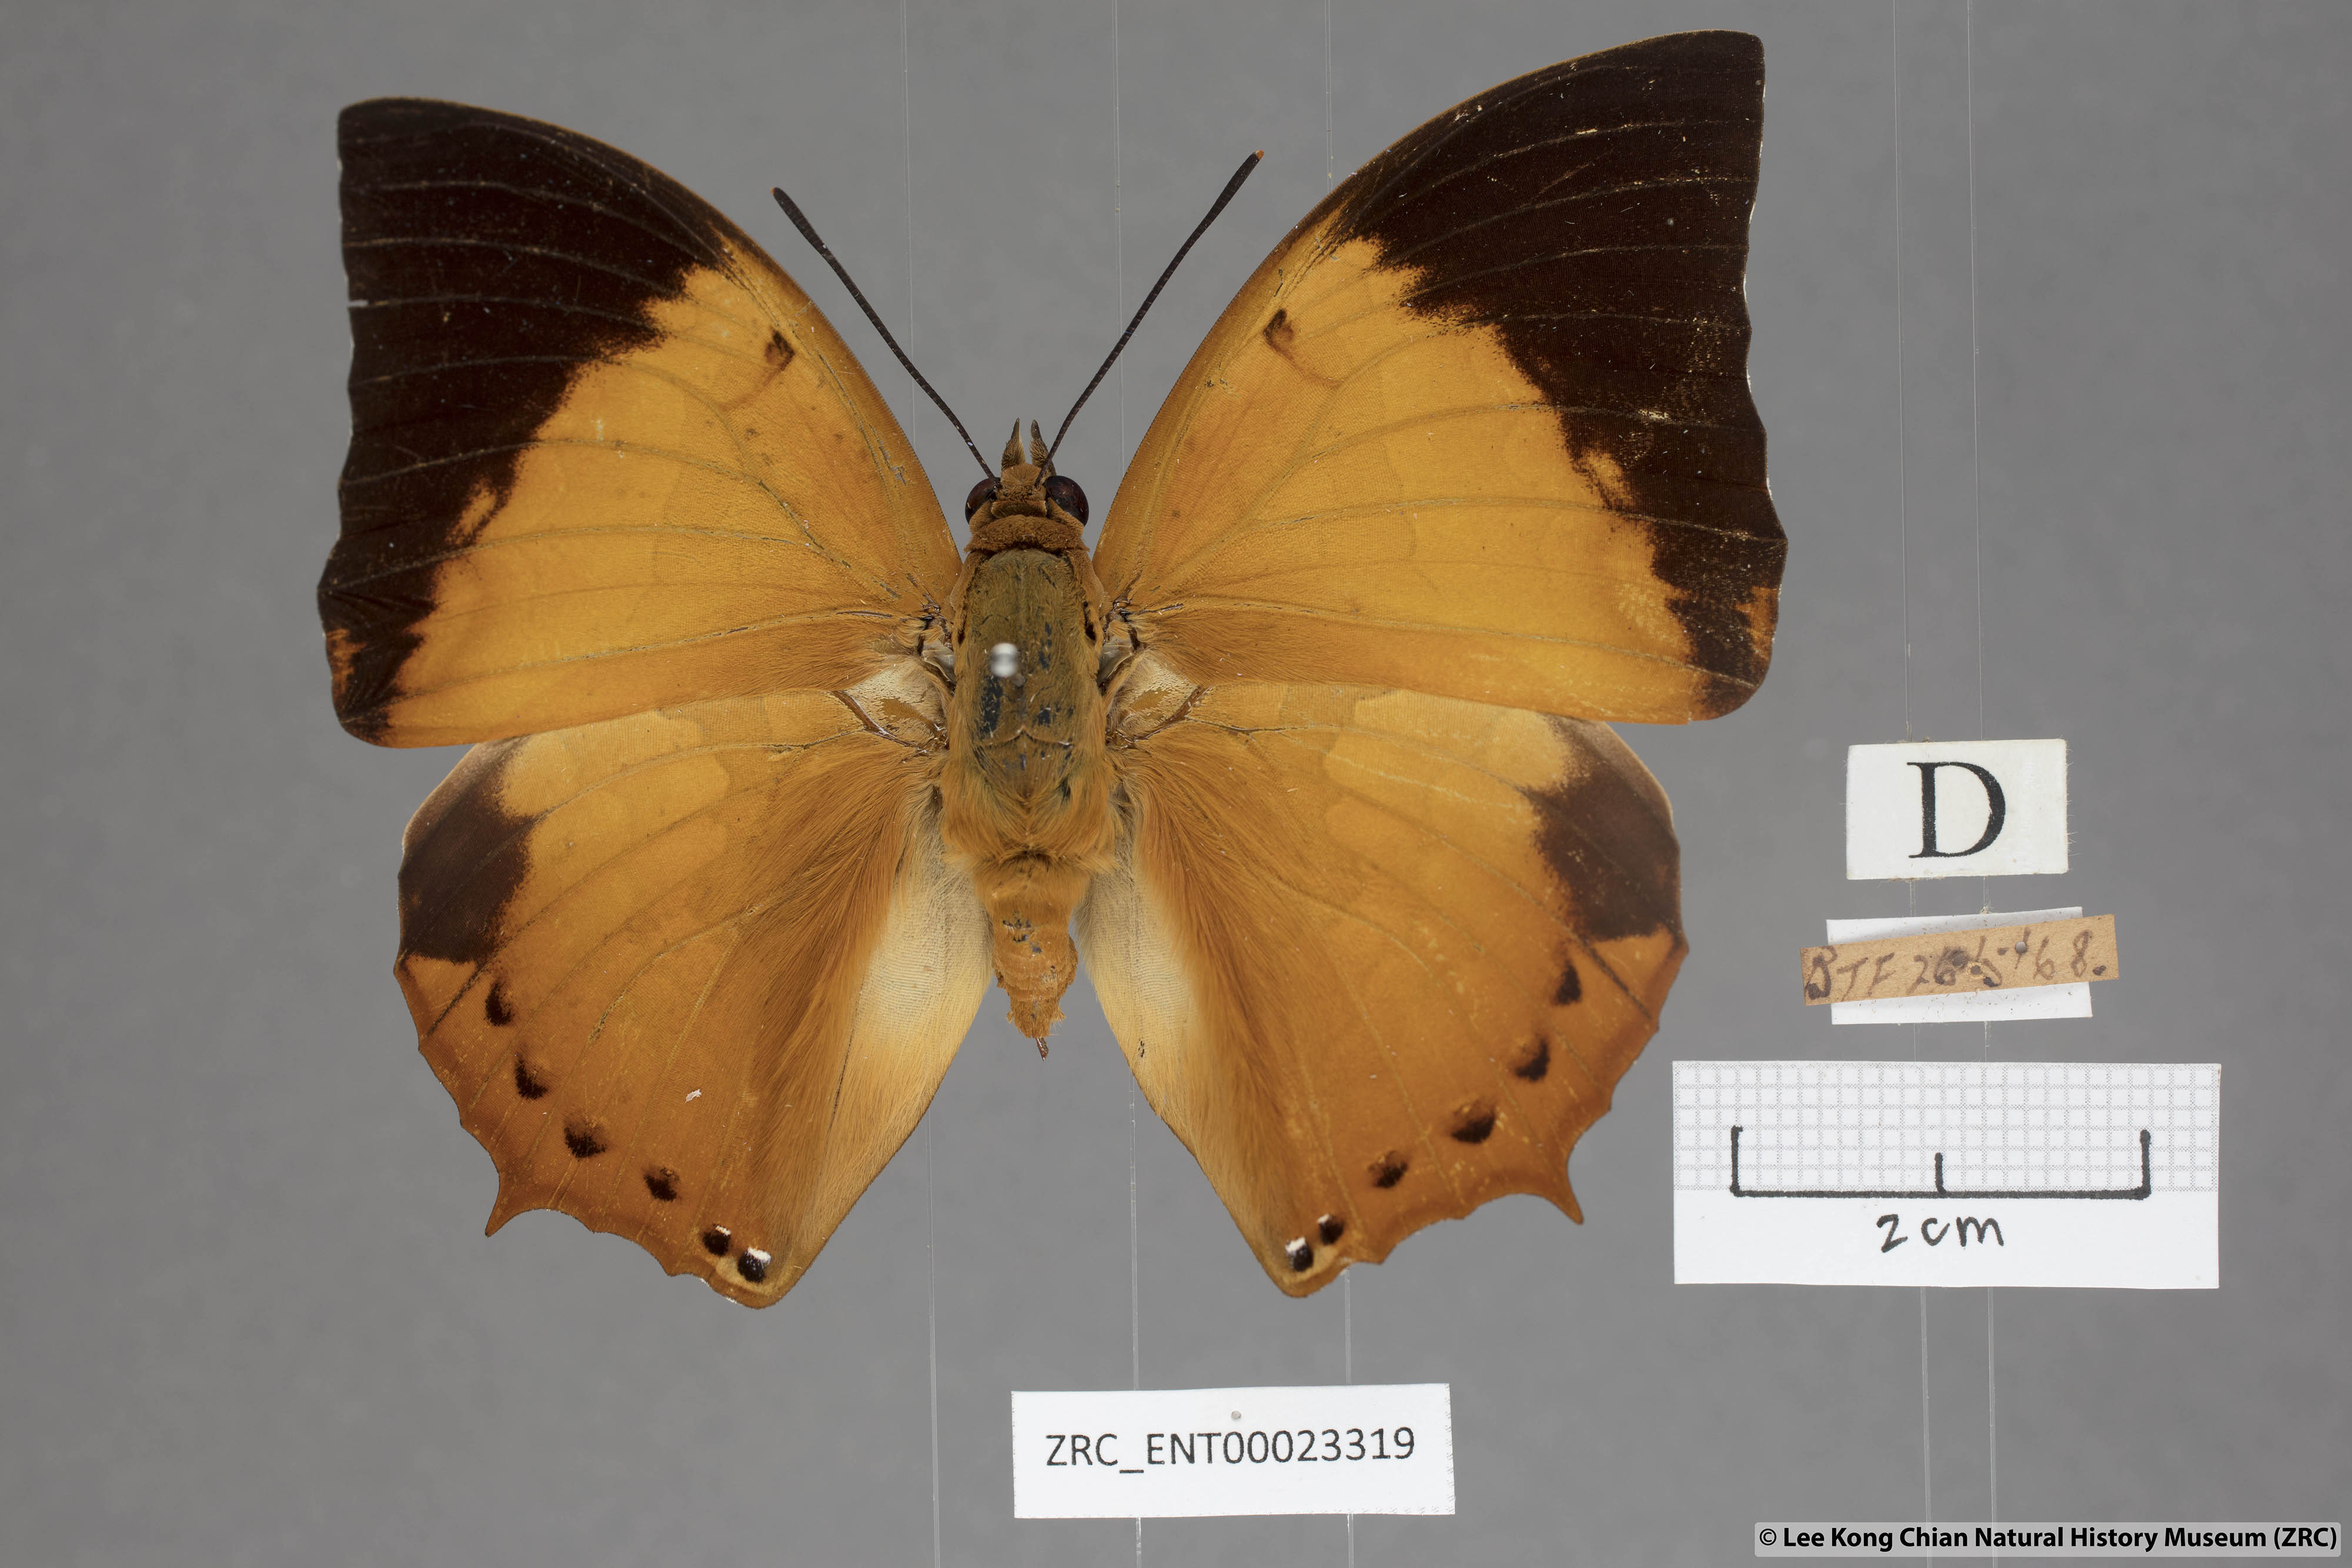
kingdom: Animalia
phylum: Arthropoda
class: Insecta
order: Lepidoptera
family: Nymphalidae
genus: Charaxes
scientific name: Charaxes bernardus
